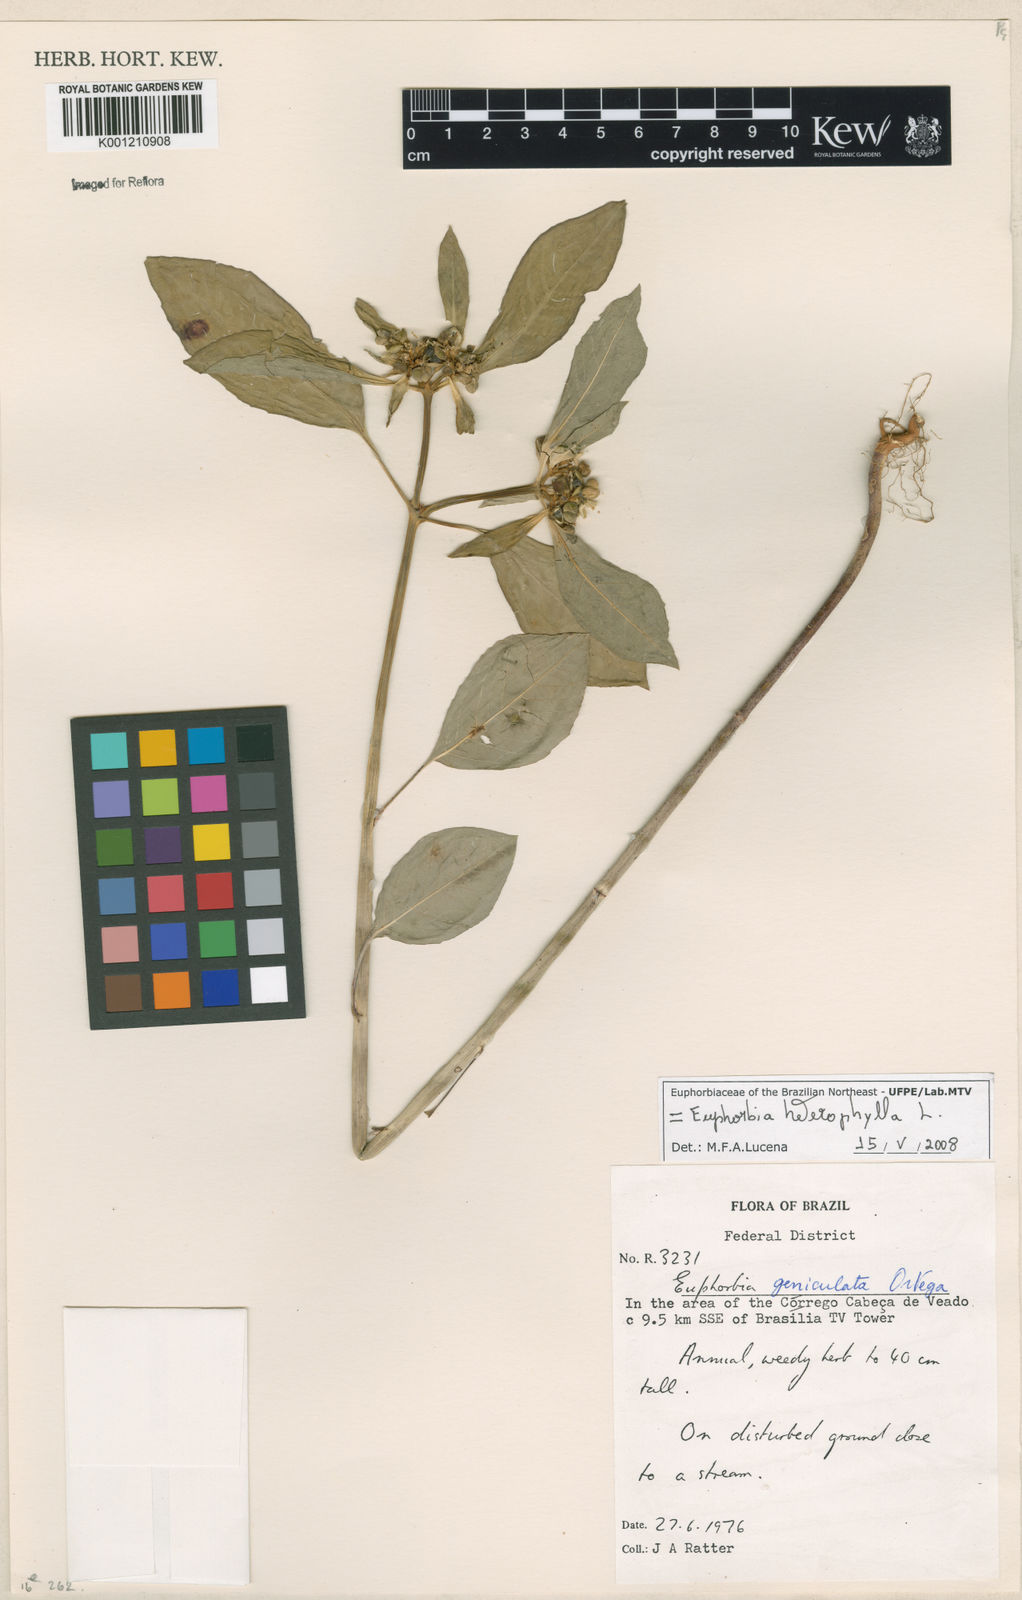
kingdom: Plantae
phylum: Tracheophyta
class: Magnoliopsida
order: Malpighiales
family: Euphorbiaceae
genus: Euphorbia
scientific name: Euphorbia heterophylla
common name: Mexican fireplant
